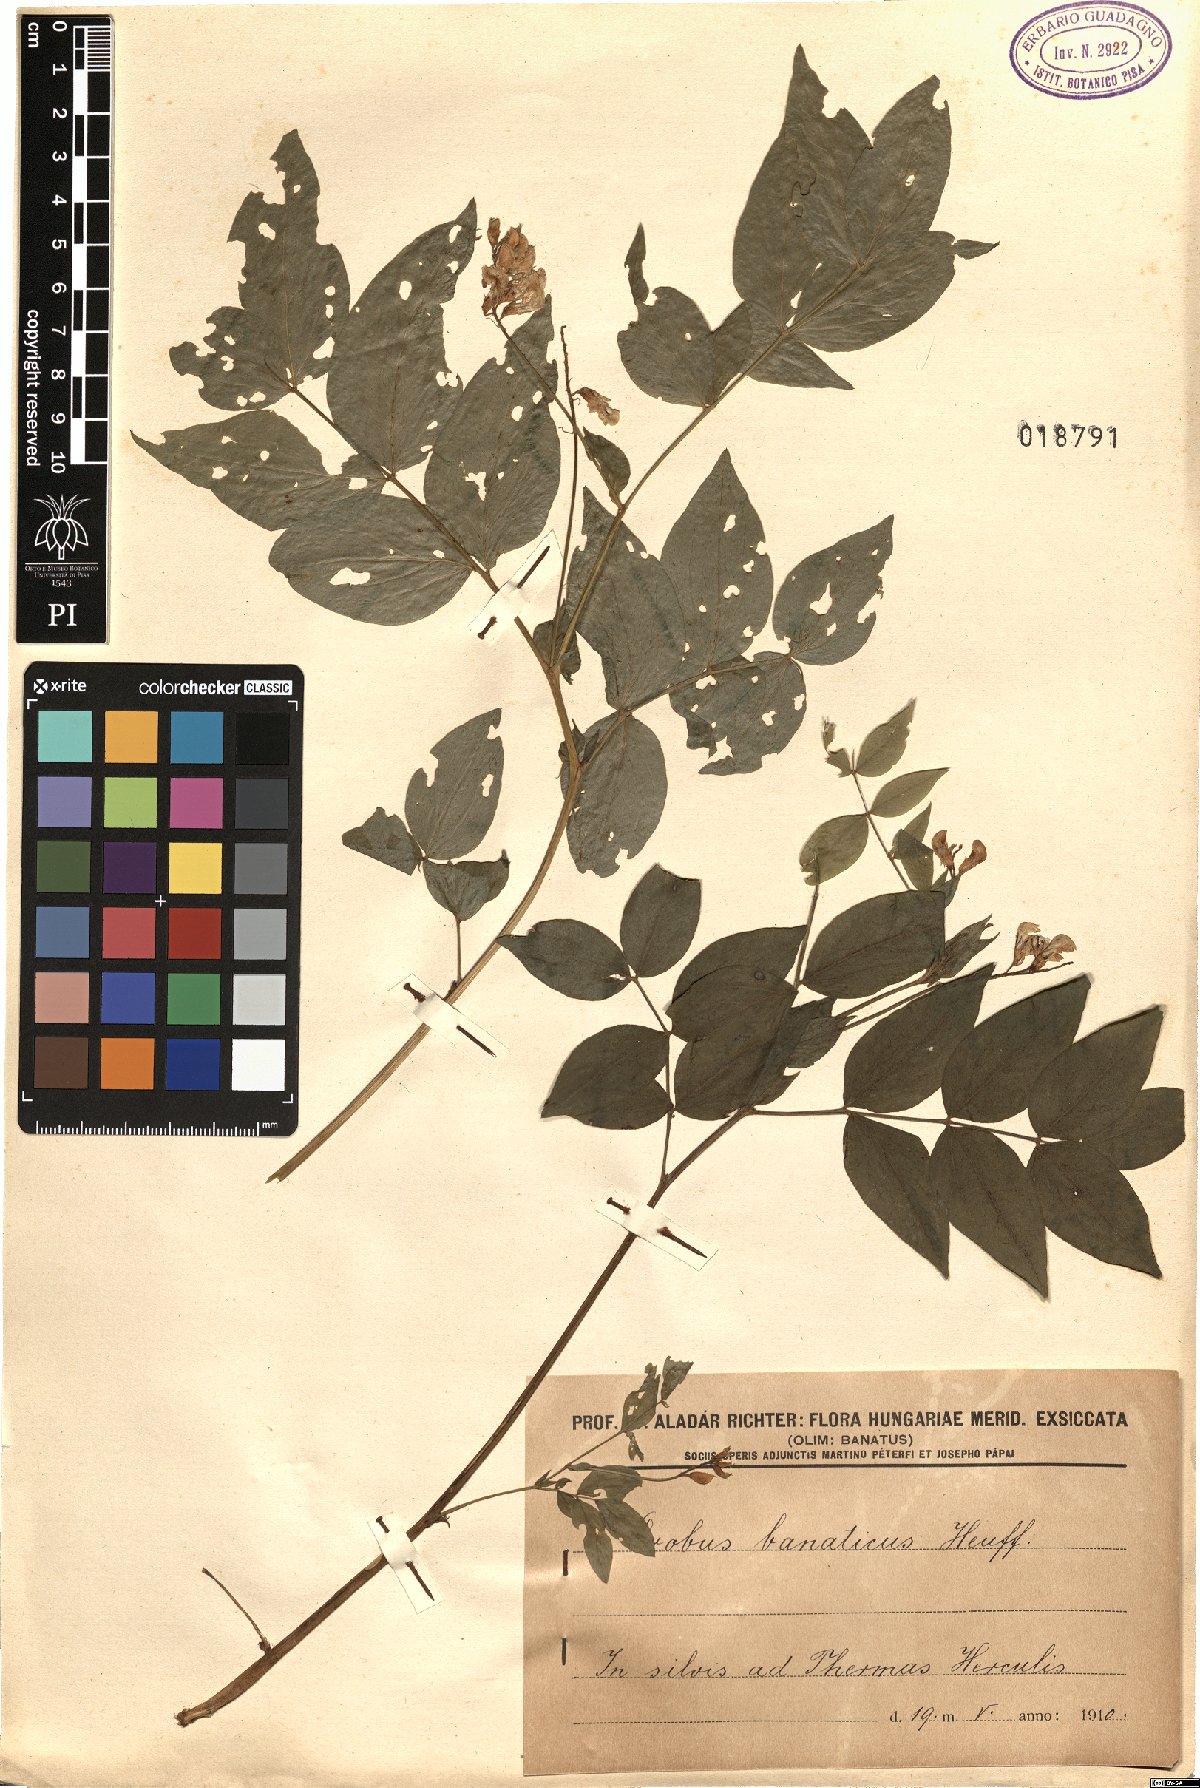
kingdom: Plantae
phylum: Tracheophyta
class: Magnoliopsida
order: Fabales
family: Fabaceae
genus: Lathyrus
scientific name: Lathyrus
